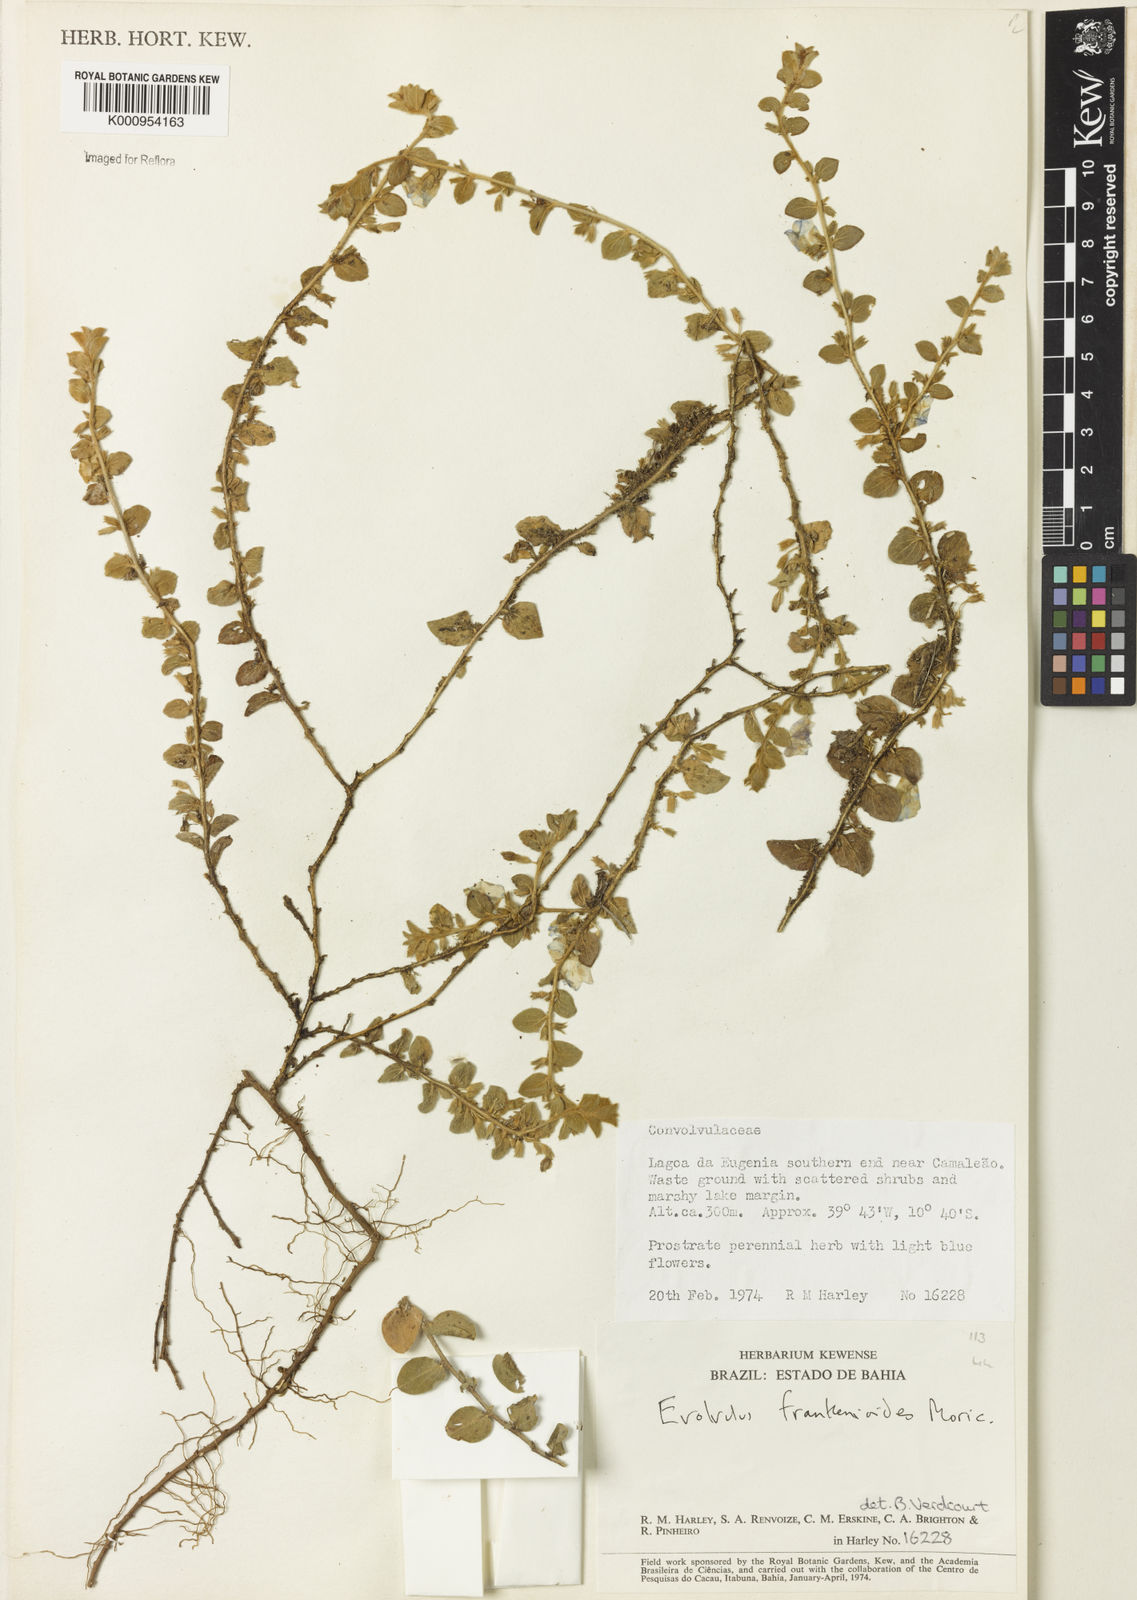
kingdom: Plantae
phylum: Tracheophyta
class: Magnoliopsida
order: Solanales
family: Convolvulaceae
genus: Evolvulus
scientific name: Evolvulus frankenioides
